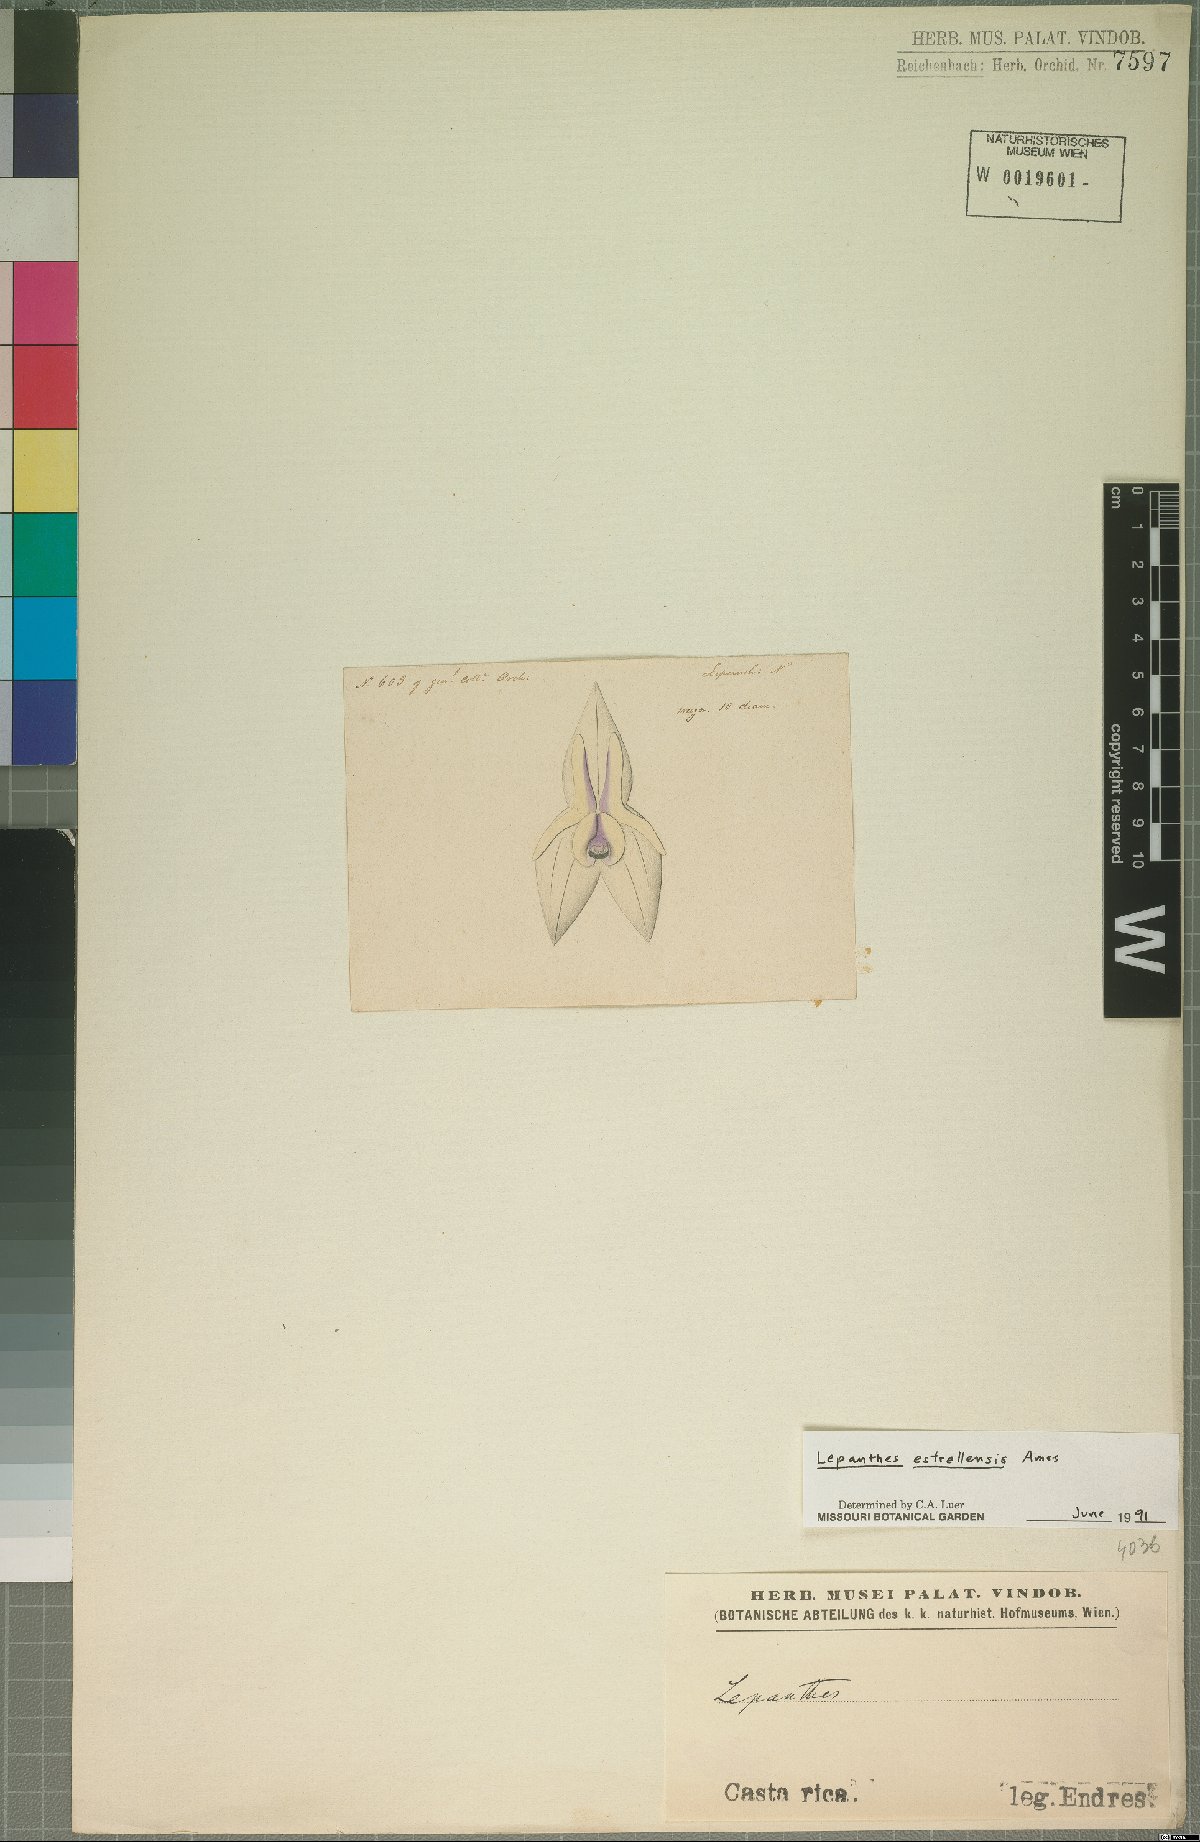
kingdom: Plantae
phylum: Tracheophyta
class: Liliopsida
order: Asparagales
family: Orchidaceae
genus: Lepanthes
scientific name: Lepanthes estrellensis
